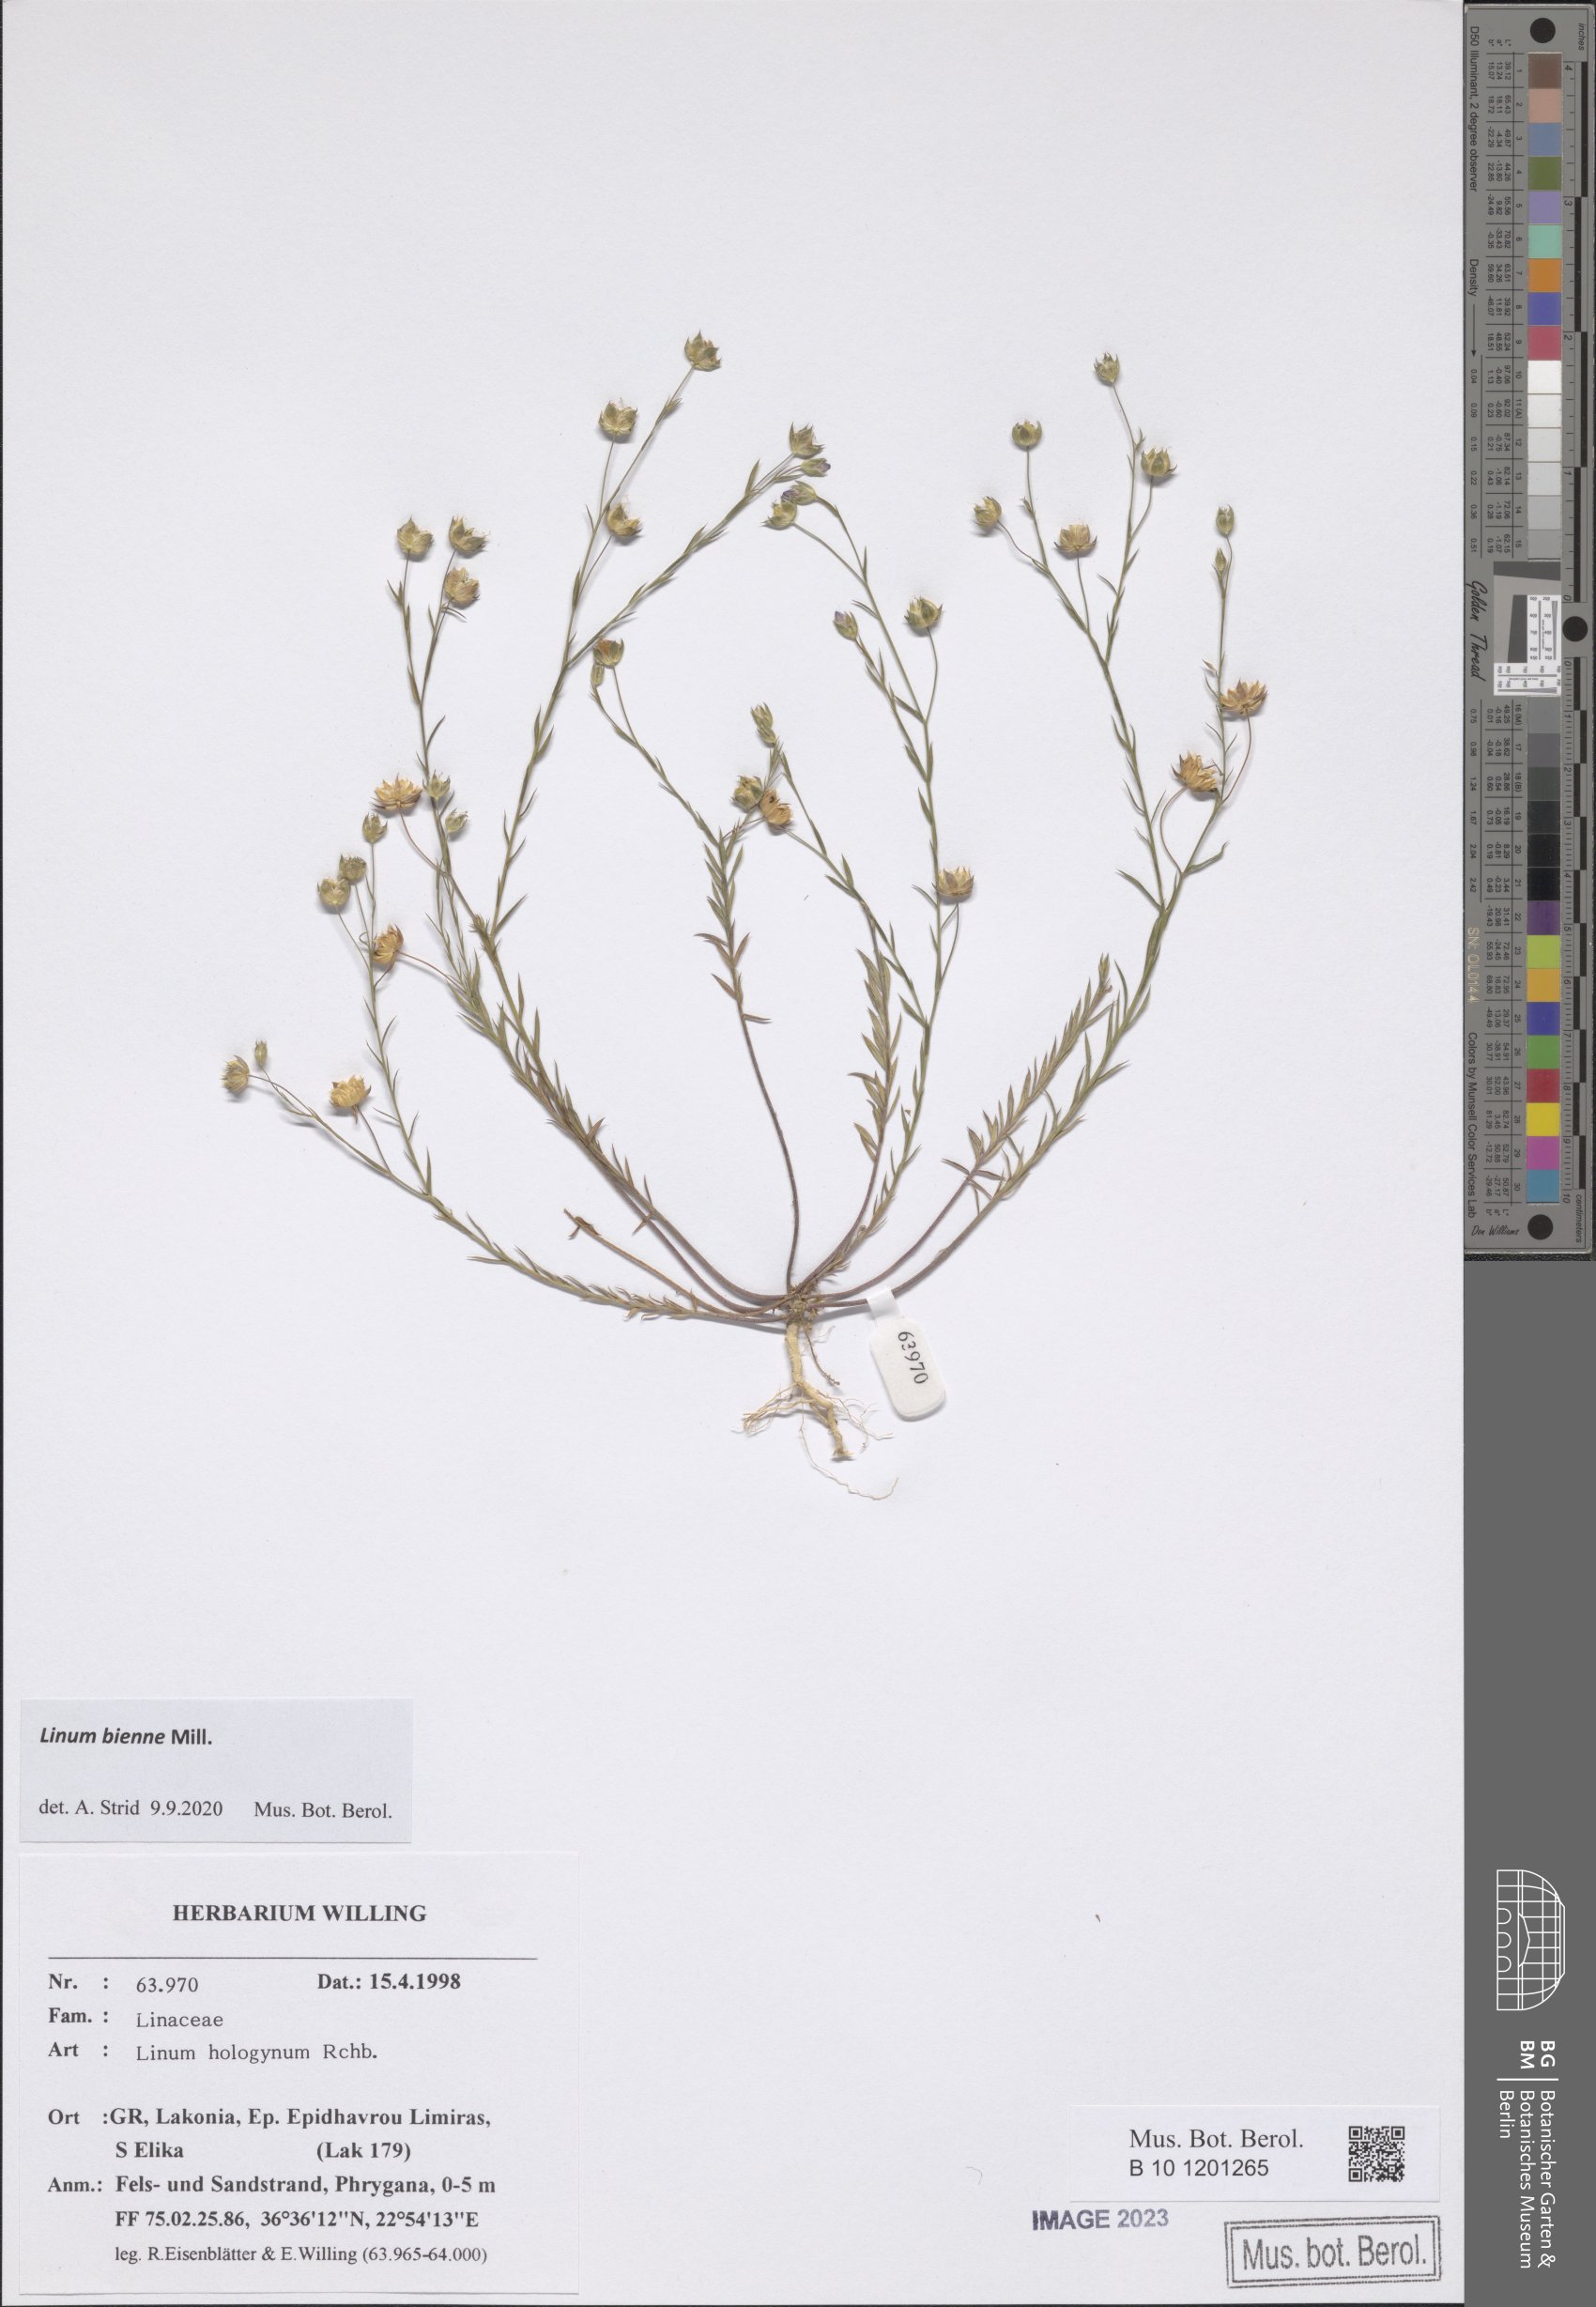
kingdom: Plantae
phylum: Tracheophyta
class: Magnoliopsida
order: Malpighiales
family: Linaceae
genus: Linum
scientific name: Linum bienne
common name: Pale flax
